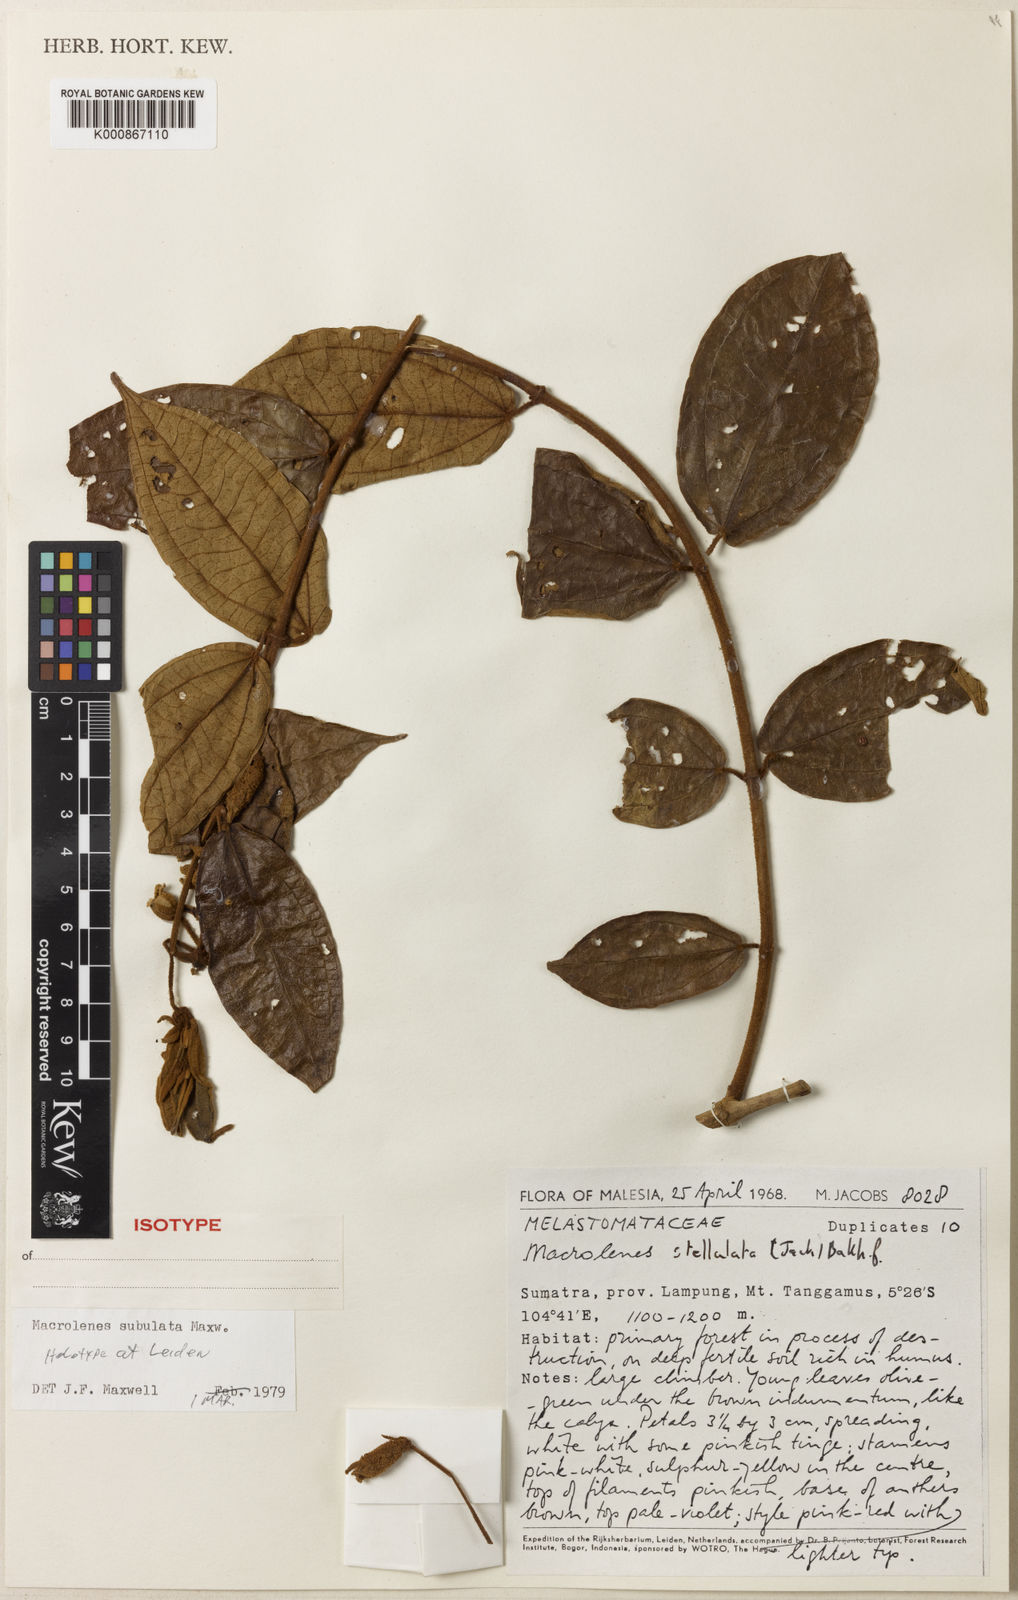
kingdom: Plantae
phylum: Tracheophyta
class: Magnoliopsida
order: Myrtales
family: Melastomataceae
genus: Macrolenes
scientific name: Macrolenes subulata
